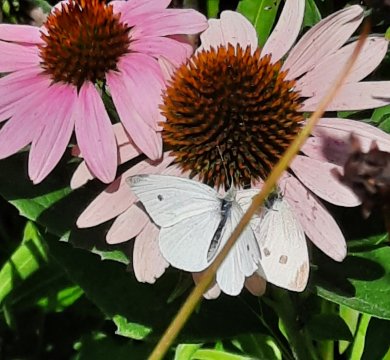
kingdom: Animalia
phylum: Arthropoda
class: Insecta
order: Lepidoptera
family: Pieridae
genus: Pieris
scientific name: Pieris rapae
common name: Cabbage White
